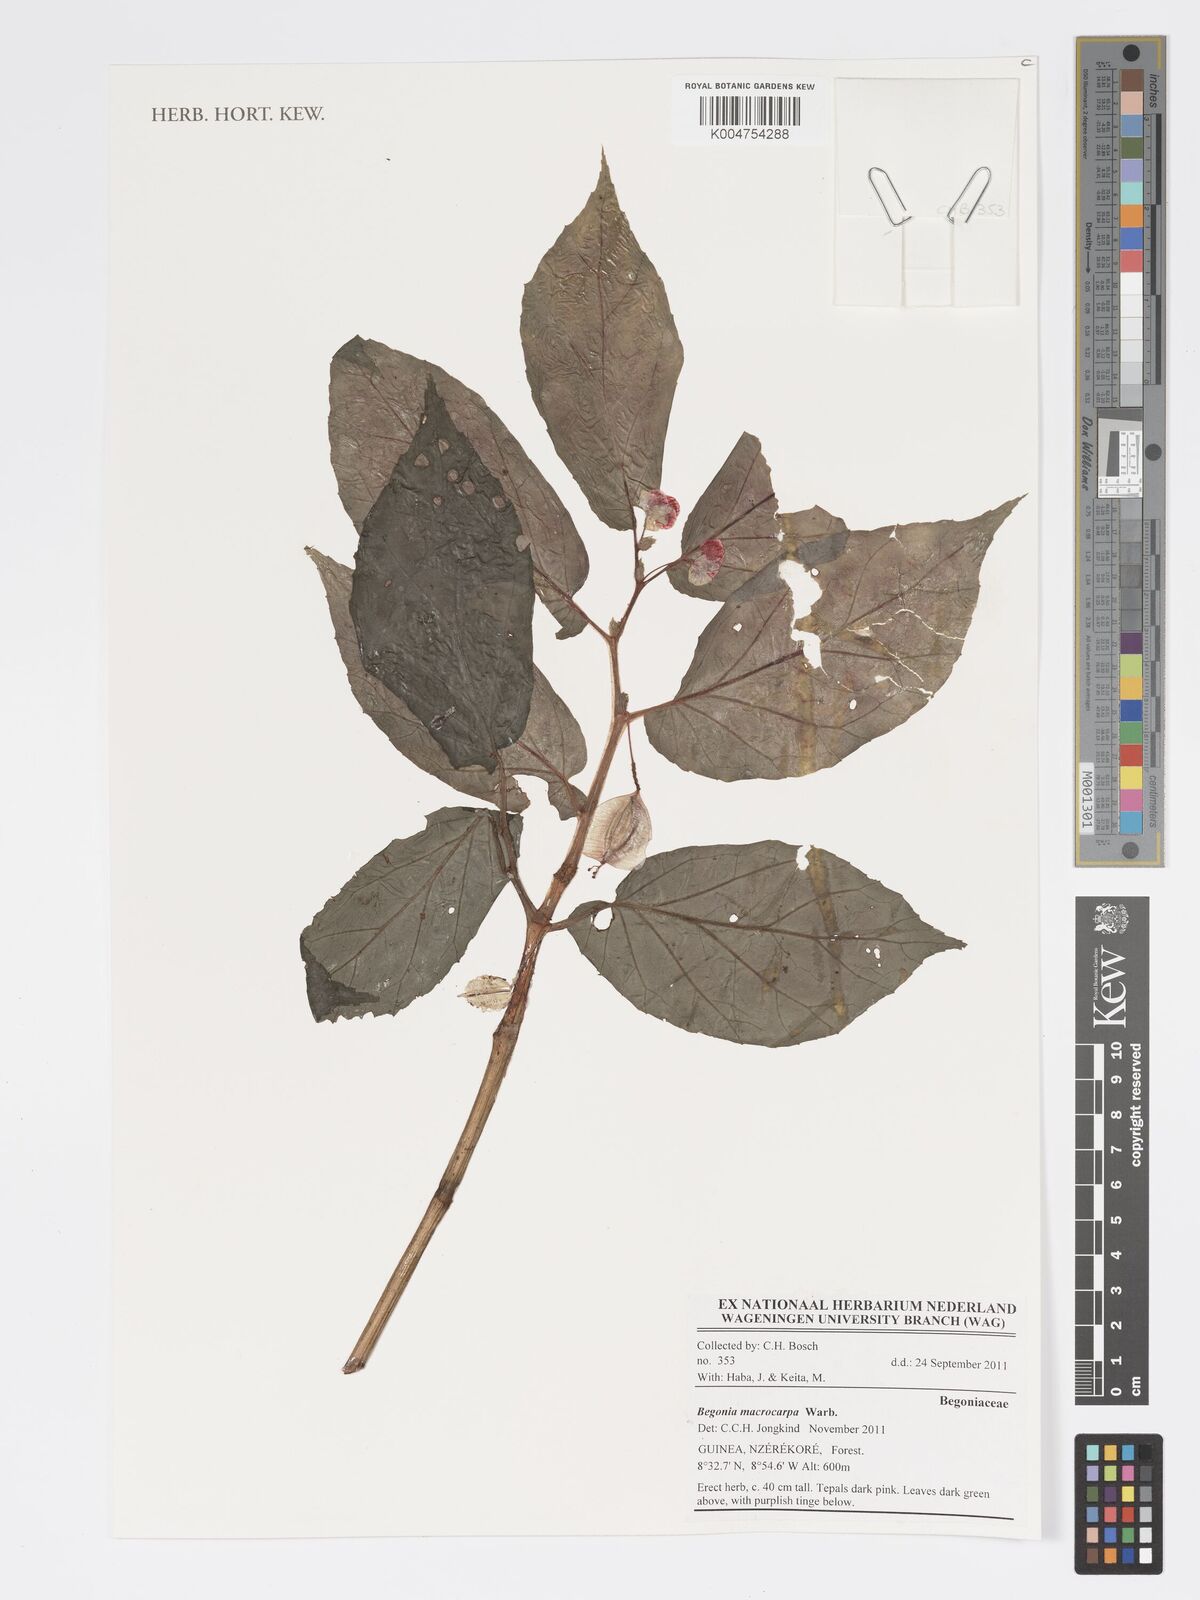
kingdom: Plantae
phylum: Tracheophyta
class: Magnoliopsida
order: Cucurbitales
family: Begoniaceae
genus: Begonia
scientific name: Begonia macrocarpa
